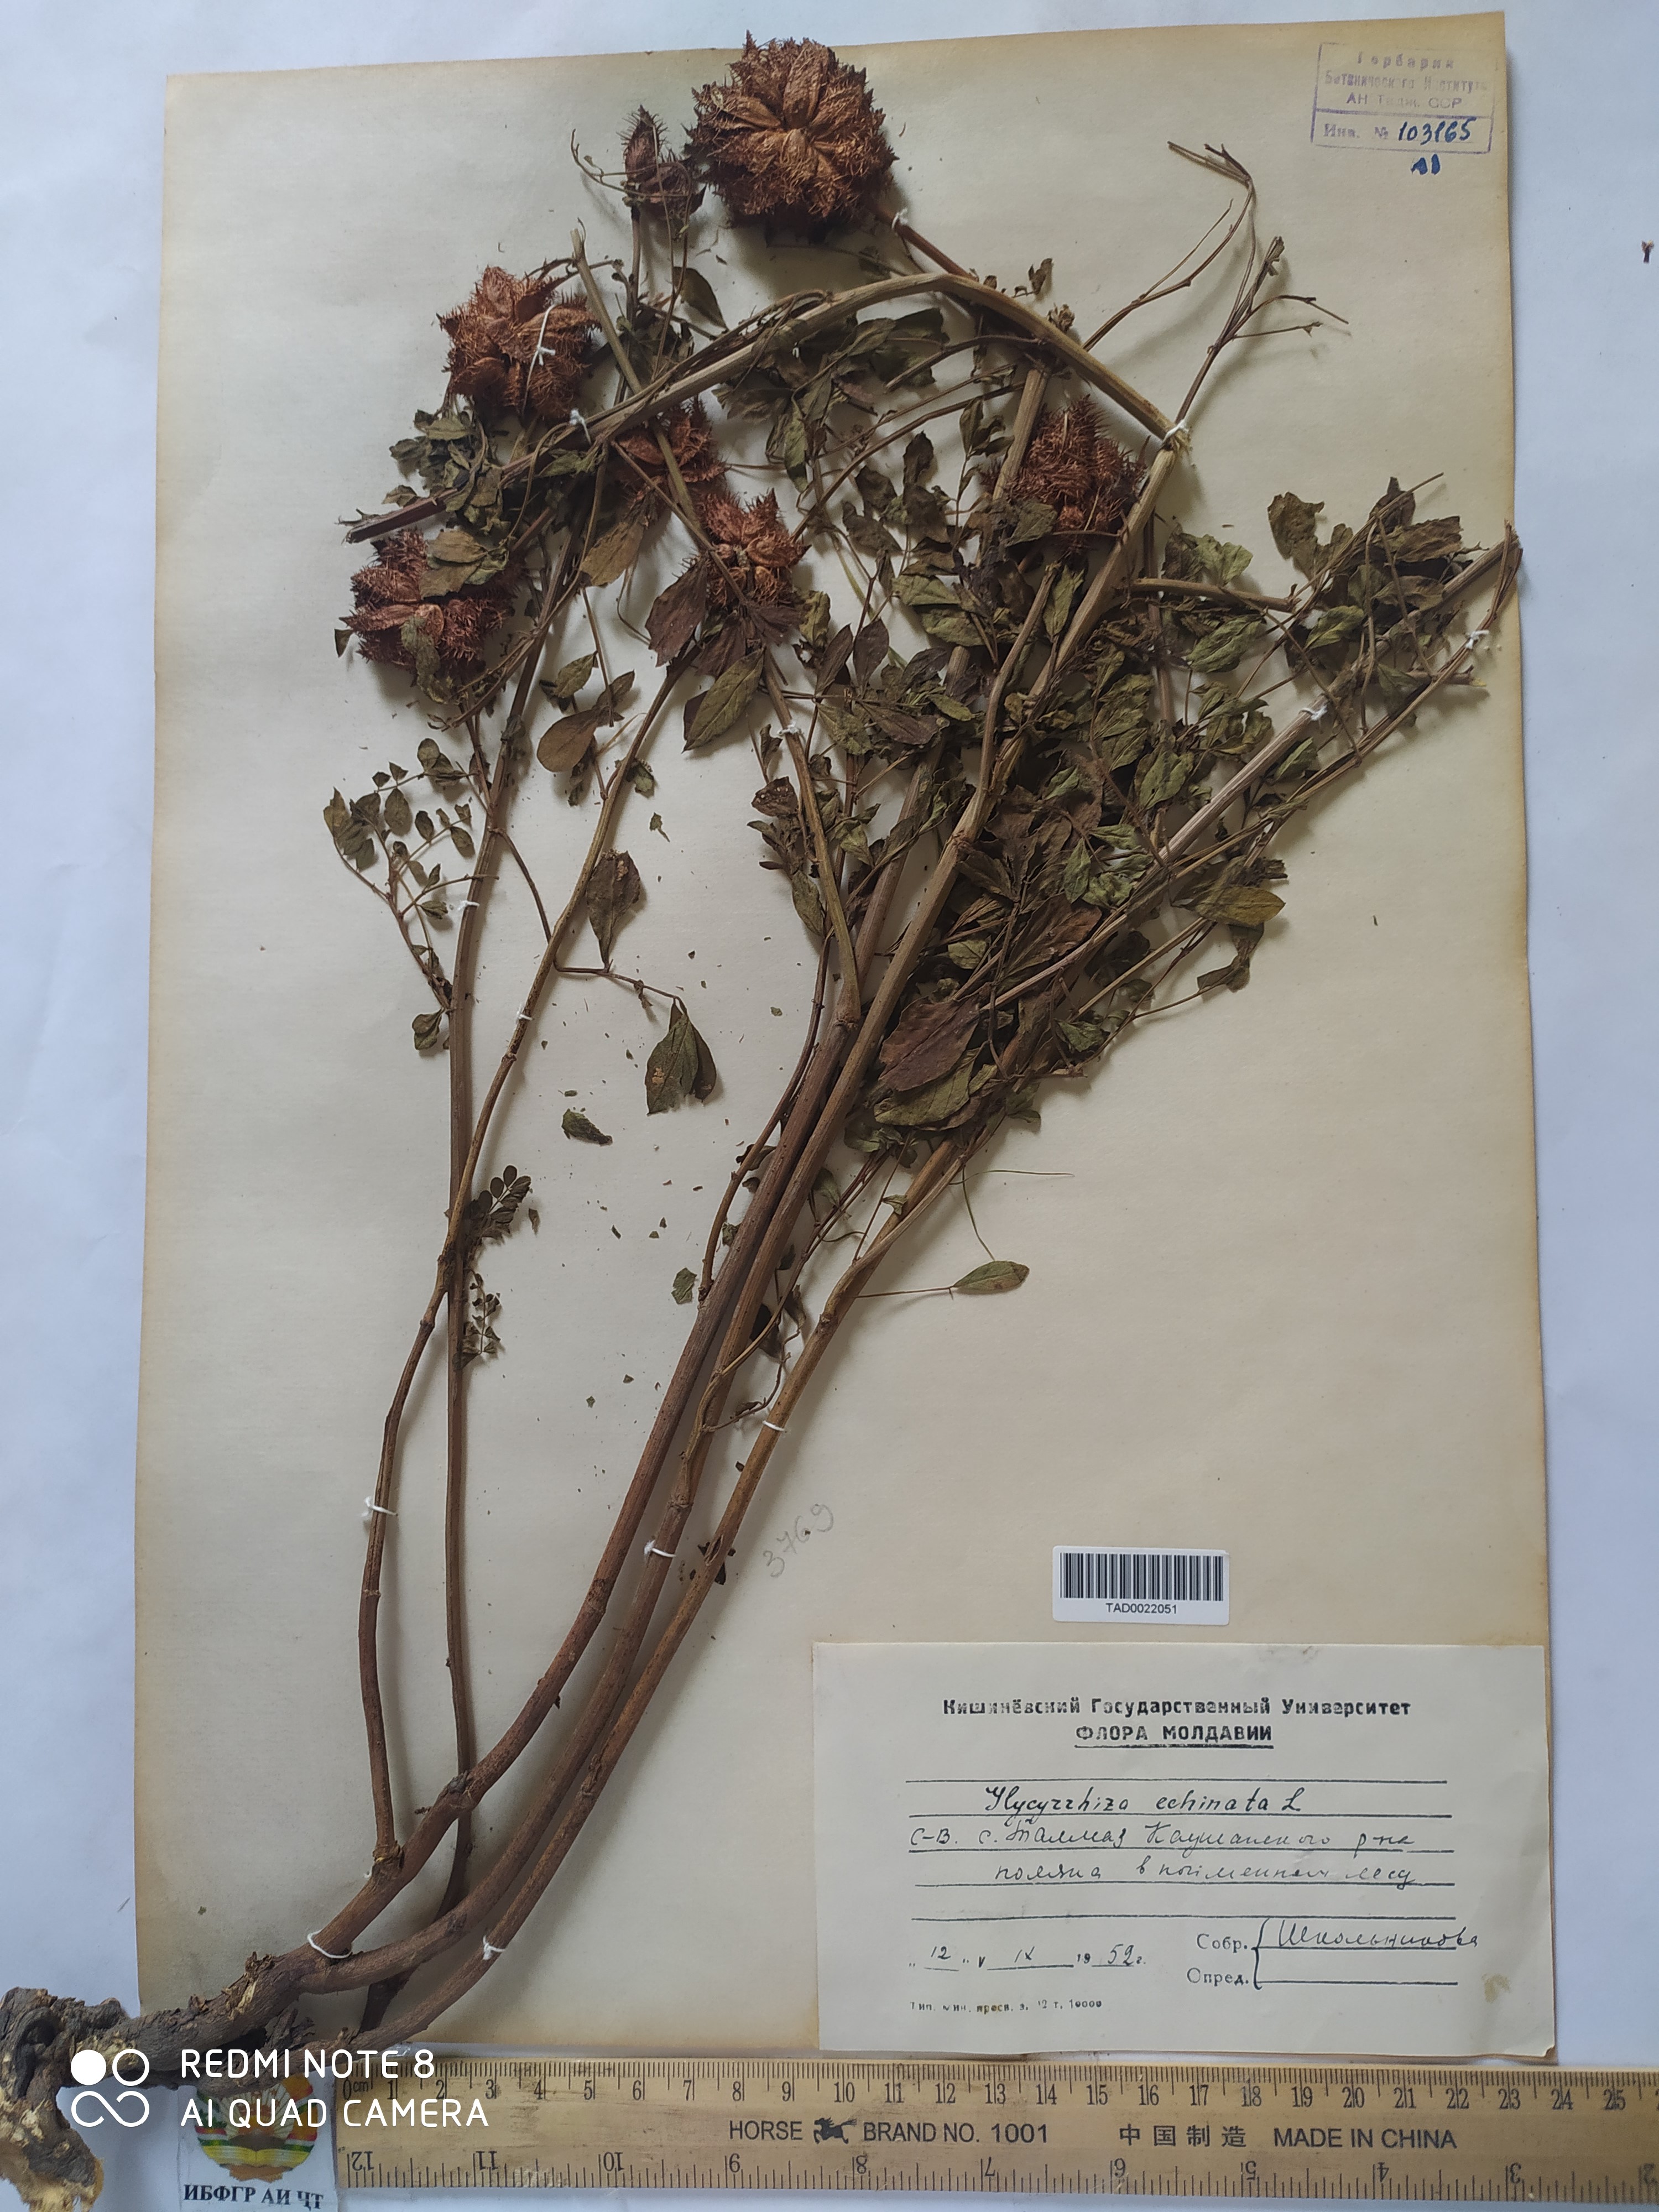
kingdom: Plantae
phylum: Tracheophyta
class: Magnoliopsida
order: Fabales
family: Fabaceae
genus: Glycyrrhiza
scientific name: Glycyrrhiza echinata
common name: German liquorice
